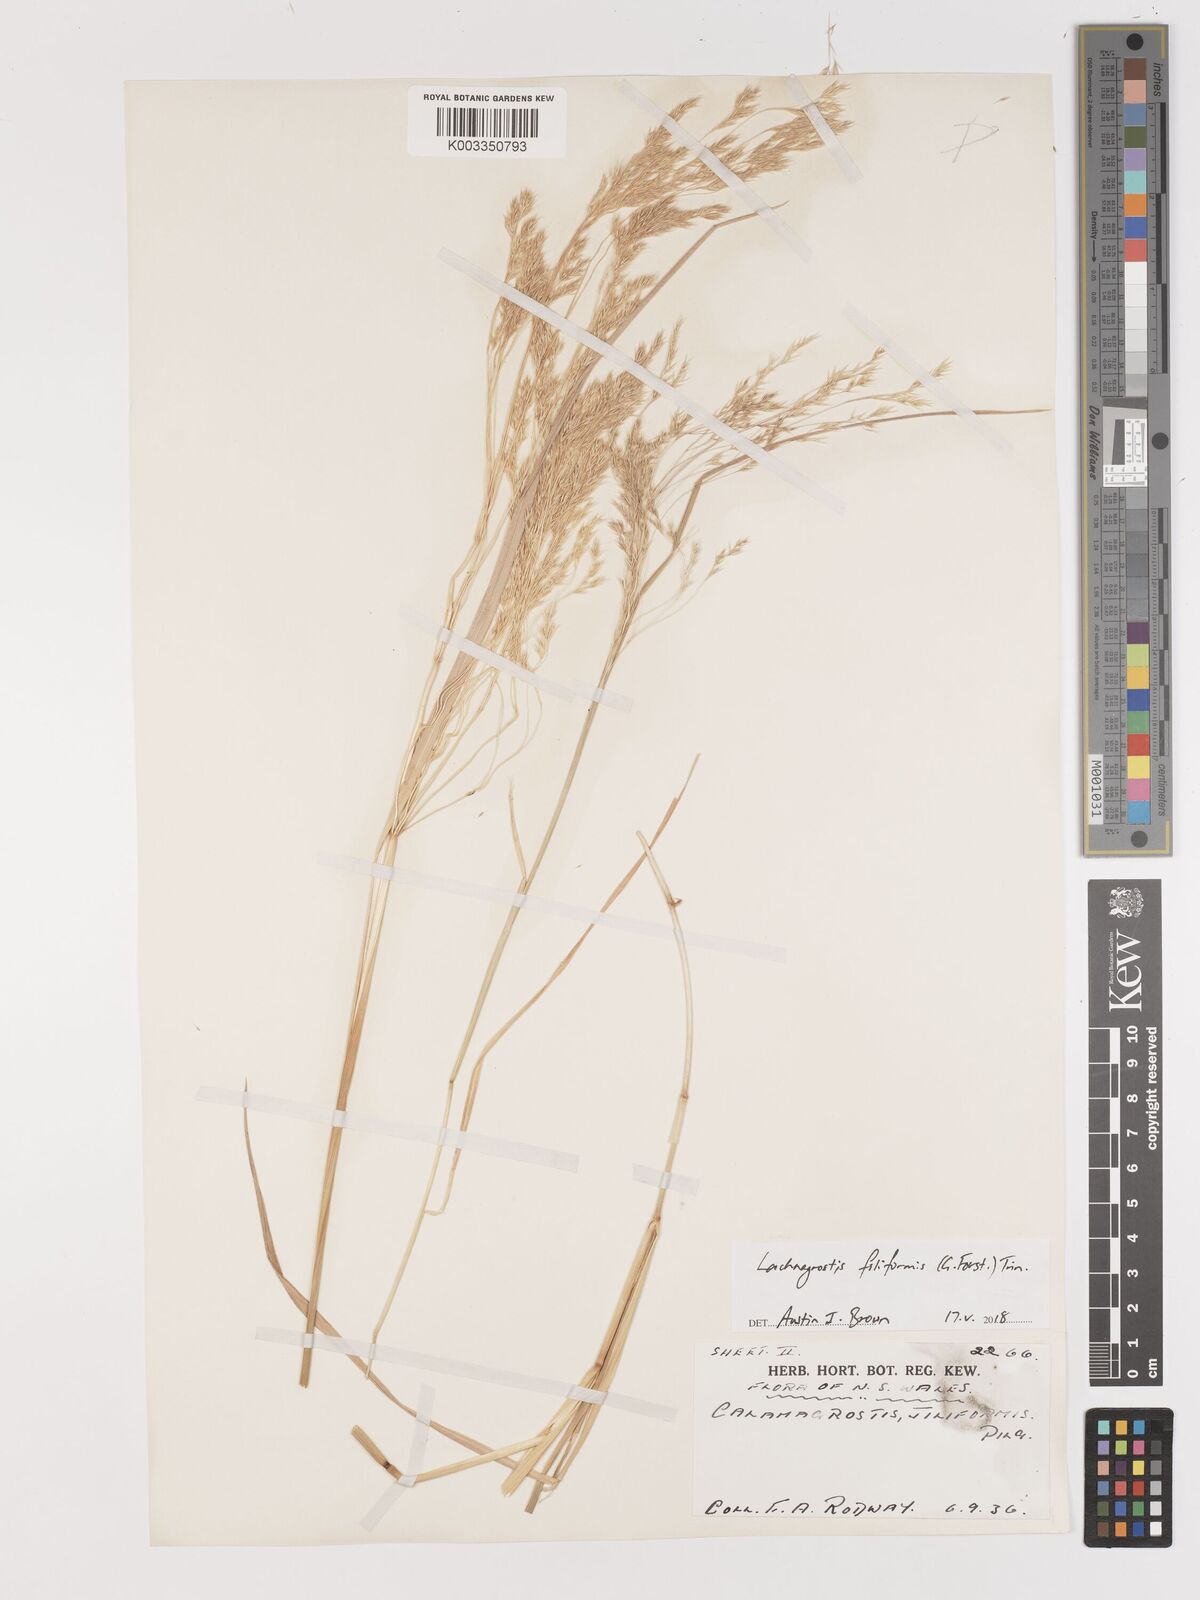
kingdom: Plantae
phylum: Tracheophyta
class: Liliopsida
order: Poales
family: Poaceae
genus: Lachnagrostis
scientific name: Lachnagrostis filiformis
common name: Bentgrass
